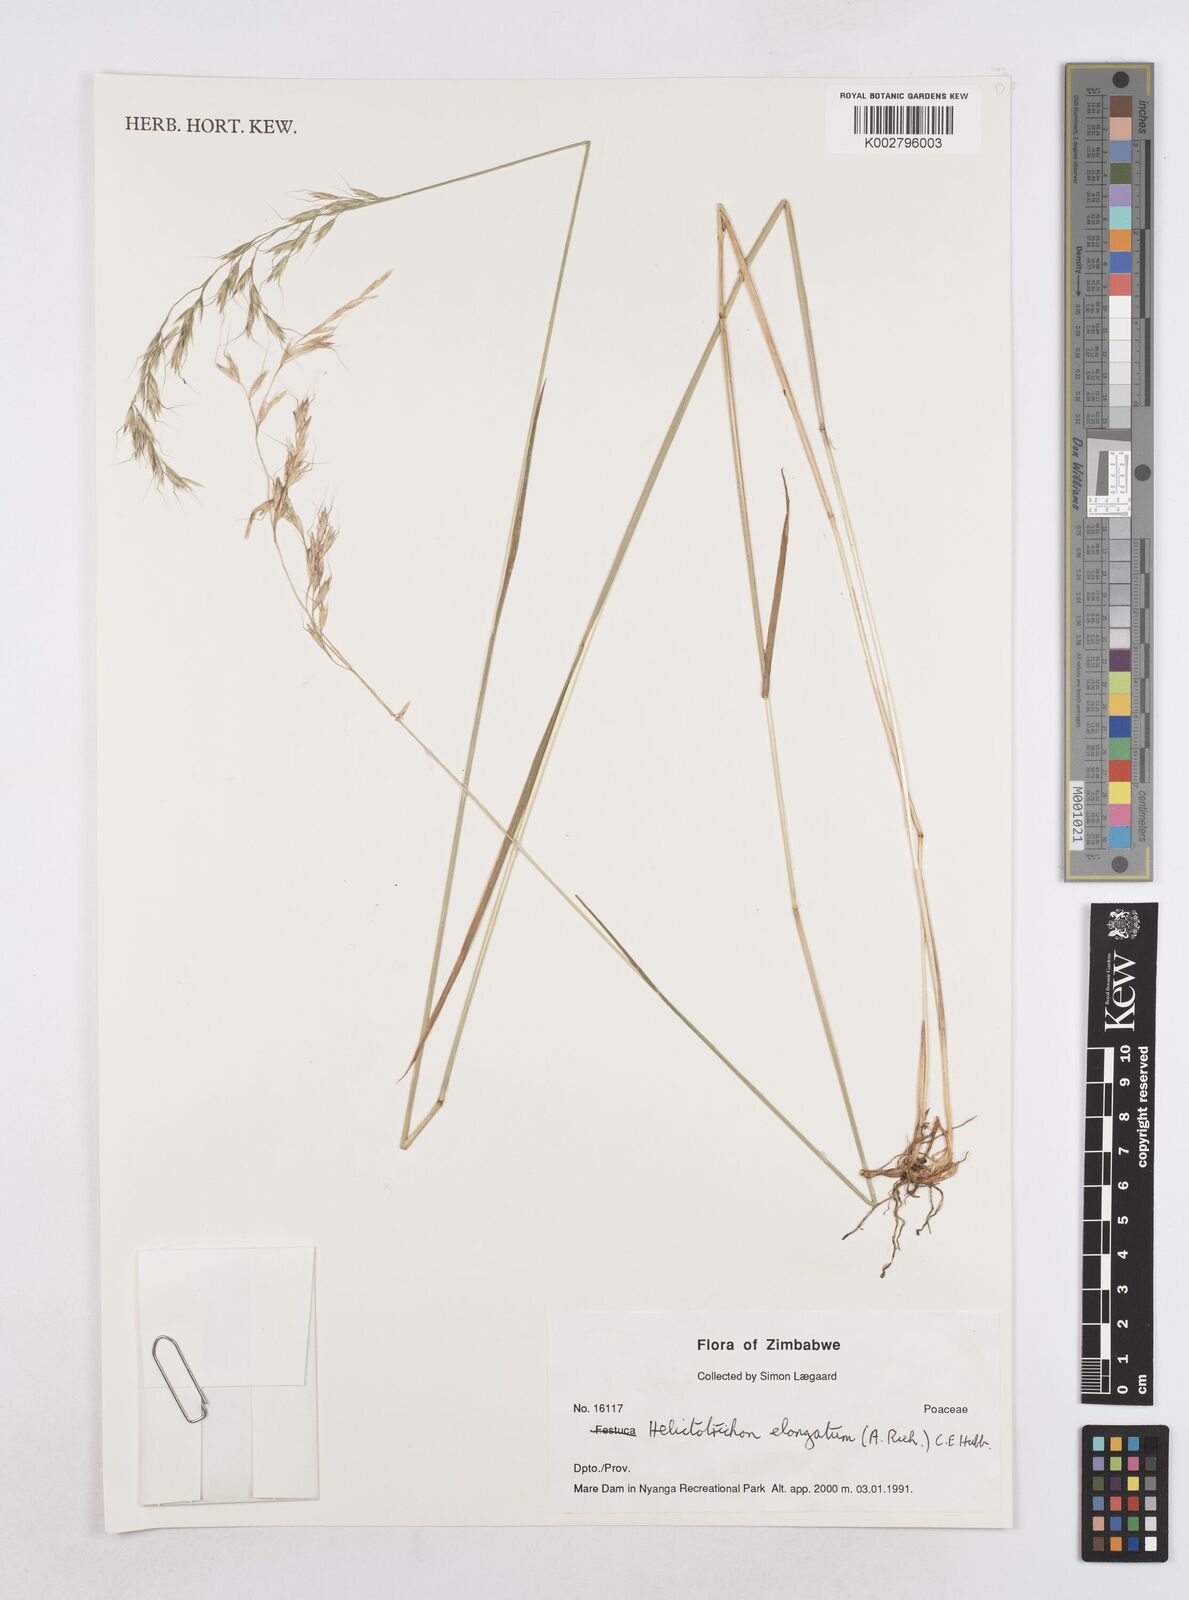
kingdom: Plantae
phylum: Tracheophyta
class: Liliopsida
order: Poales
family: Poaceae
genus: Trisetopsis
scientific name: Trisetopsis elongata
